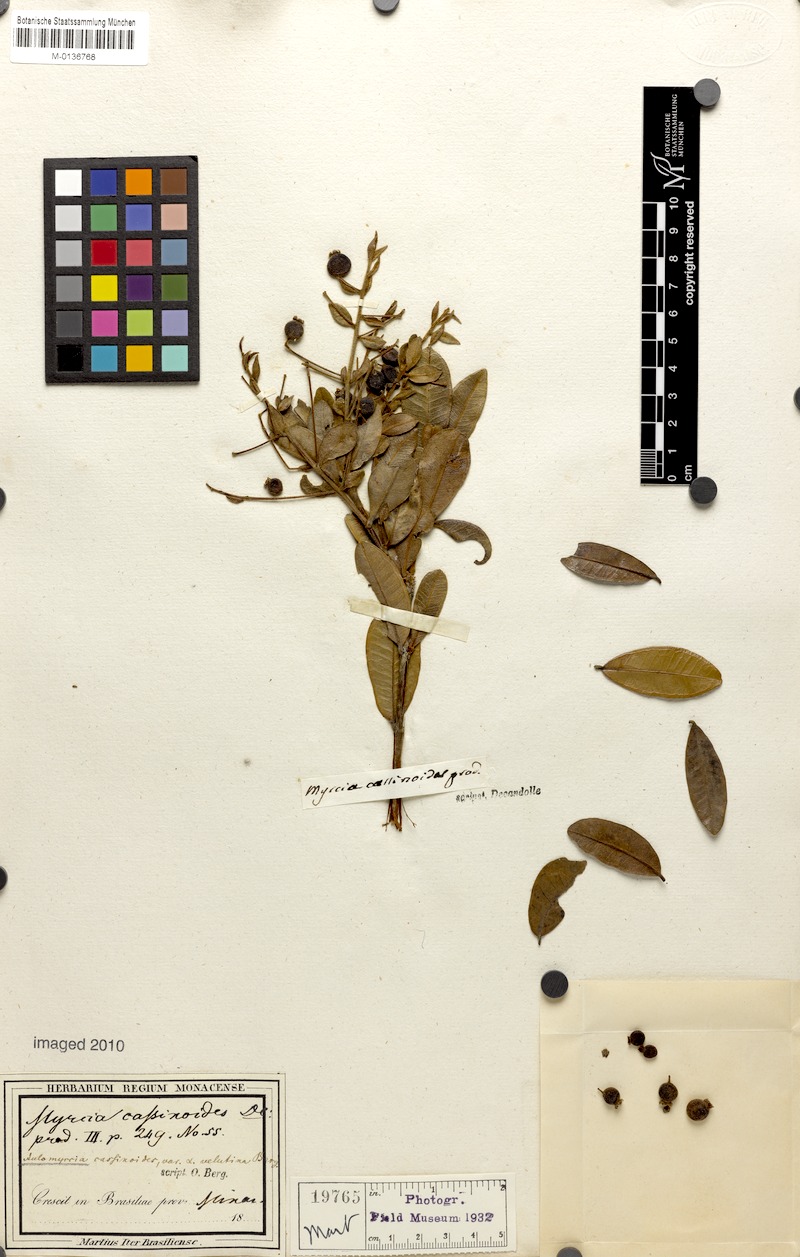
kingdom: Plantae
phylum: Tracheophyta
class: Magnoliopsida
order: Myrtales
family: Myrtaceae
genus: Myrcia
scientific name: Myrcia guianensis
